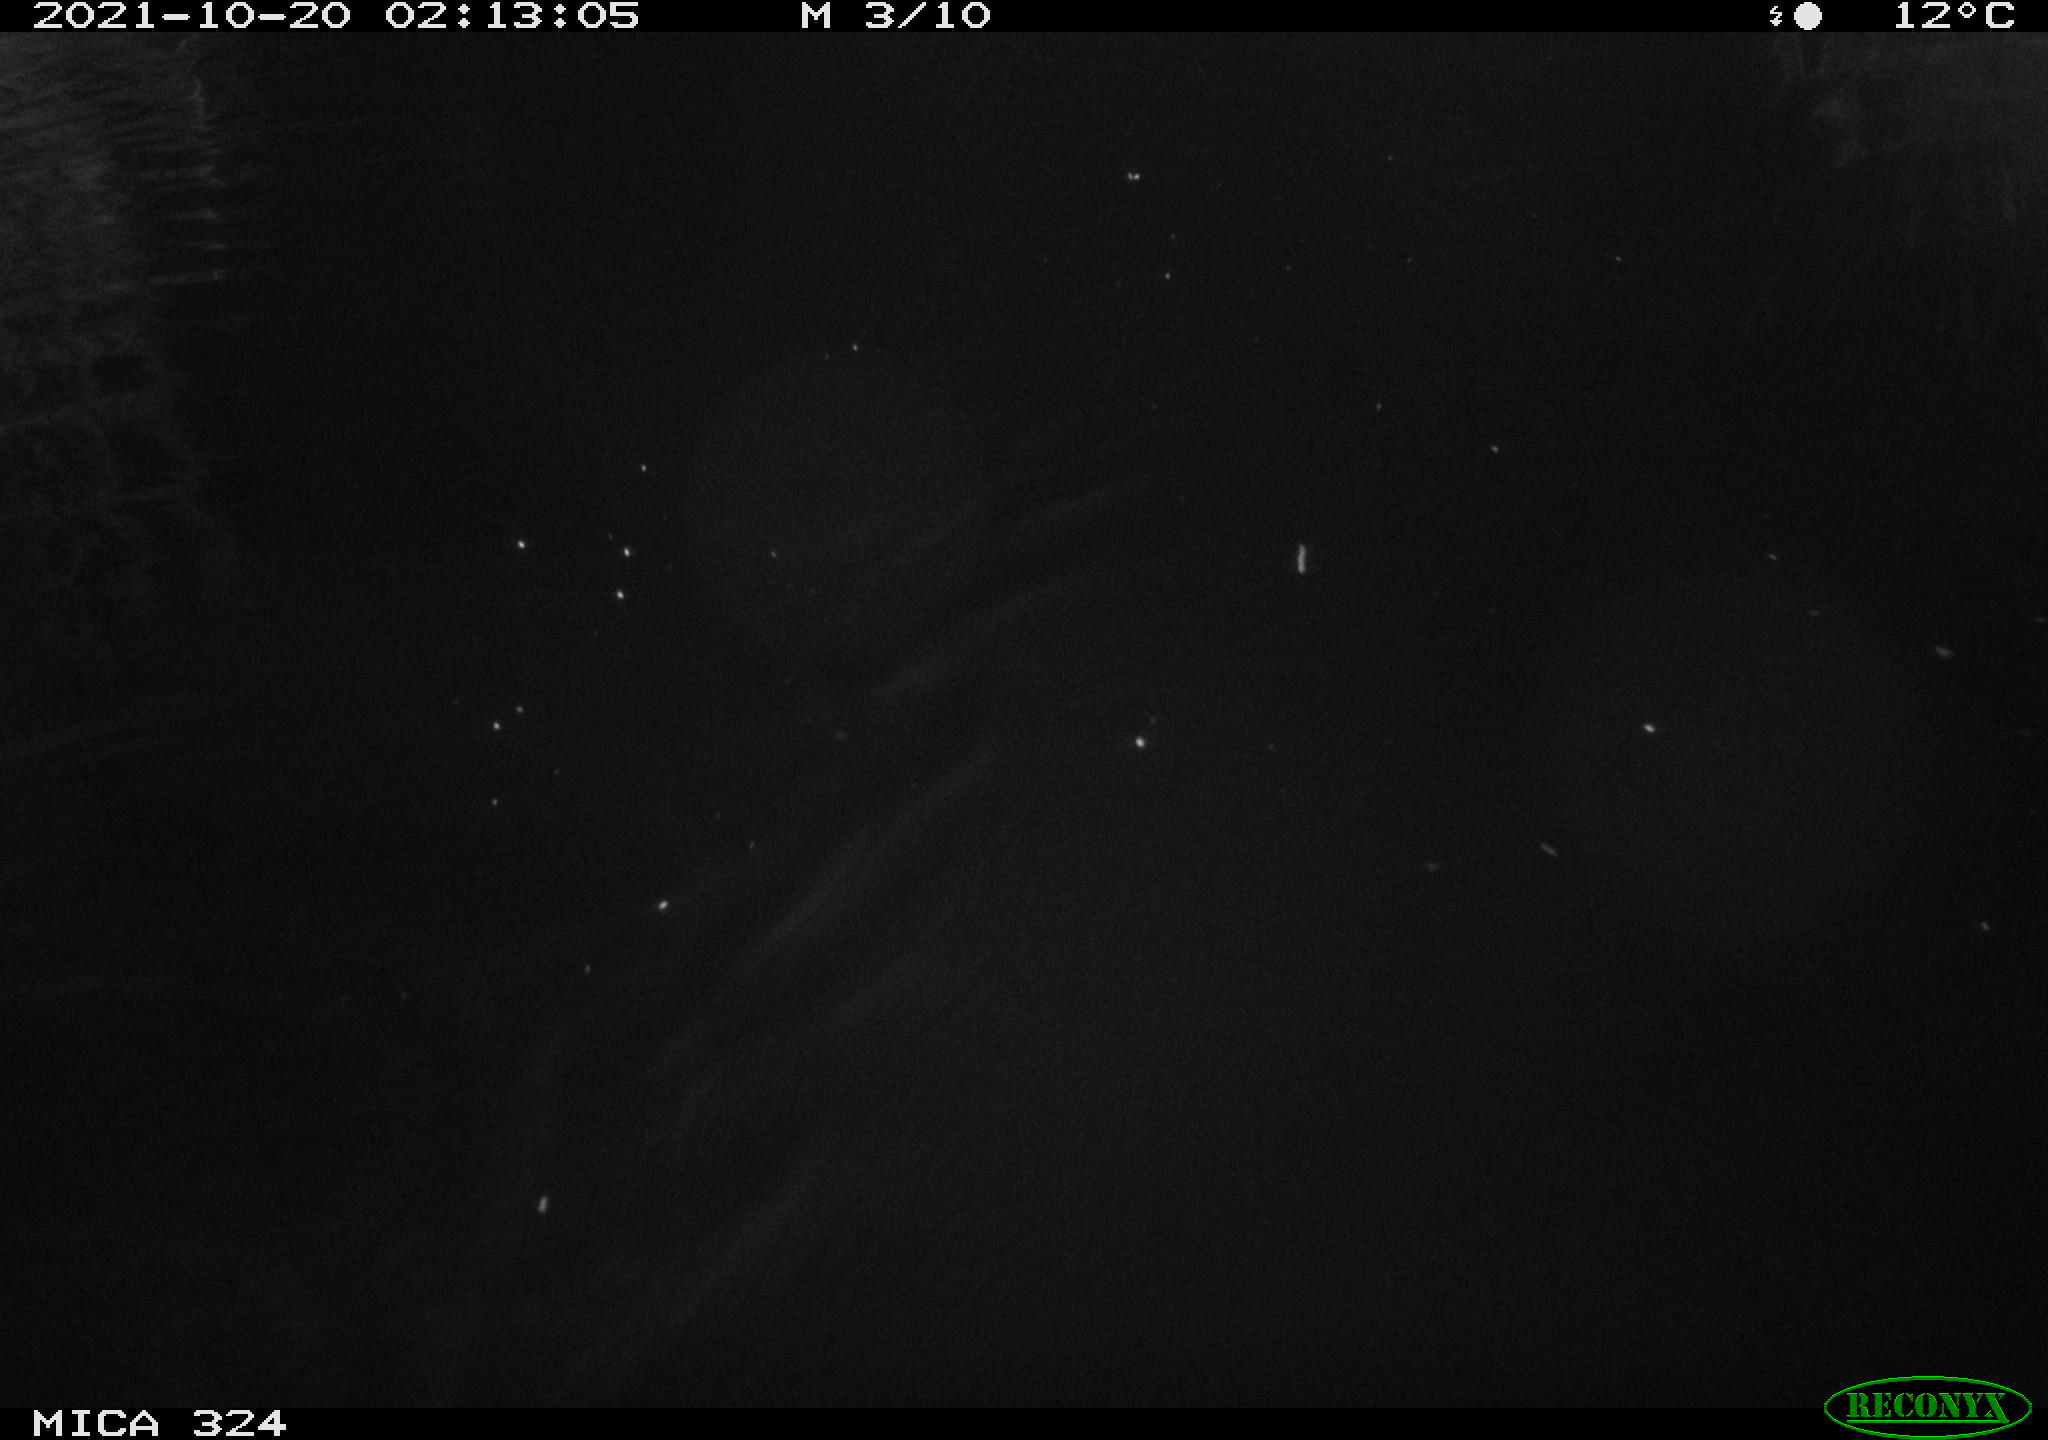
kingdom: Animalia
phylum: Chordata
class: Mammalia
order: Rodentia
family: Cricetidae
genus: Ondatra
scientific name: Ondatra zibethicus
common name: Muskrat
